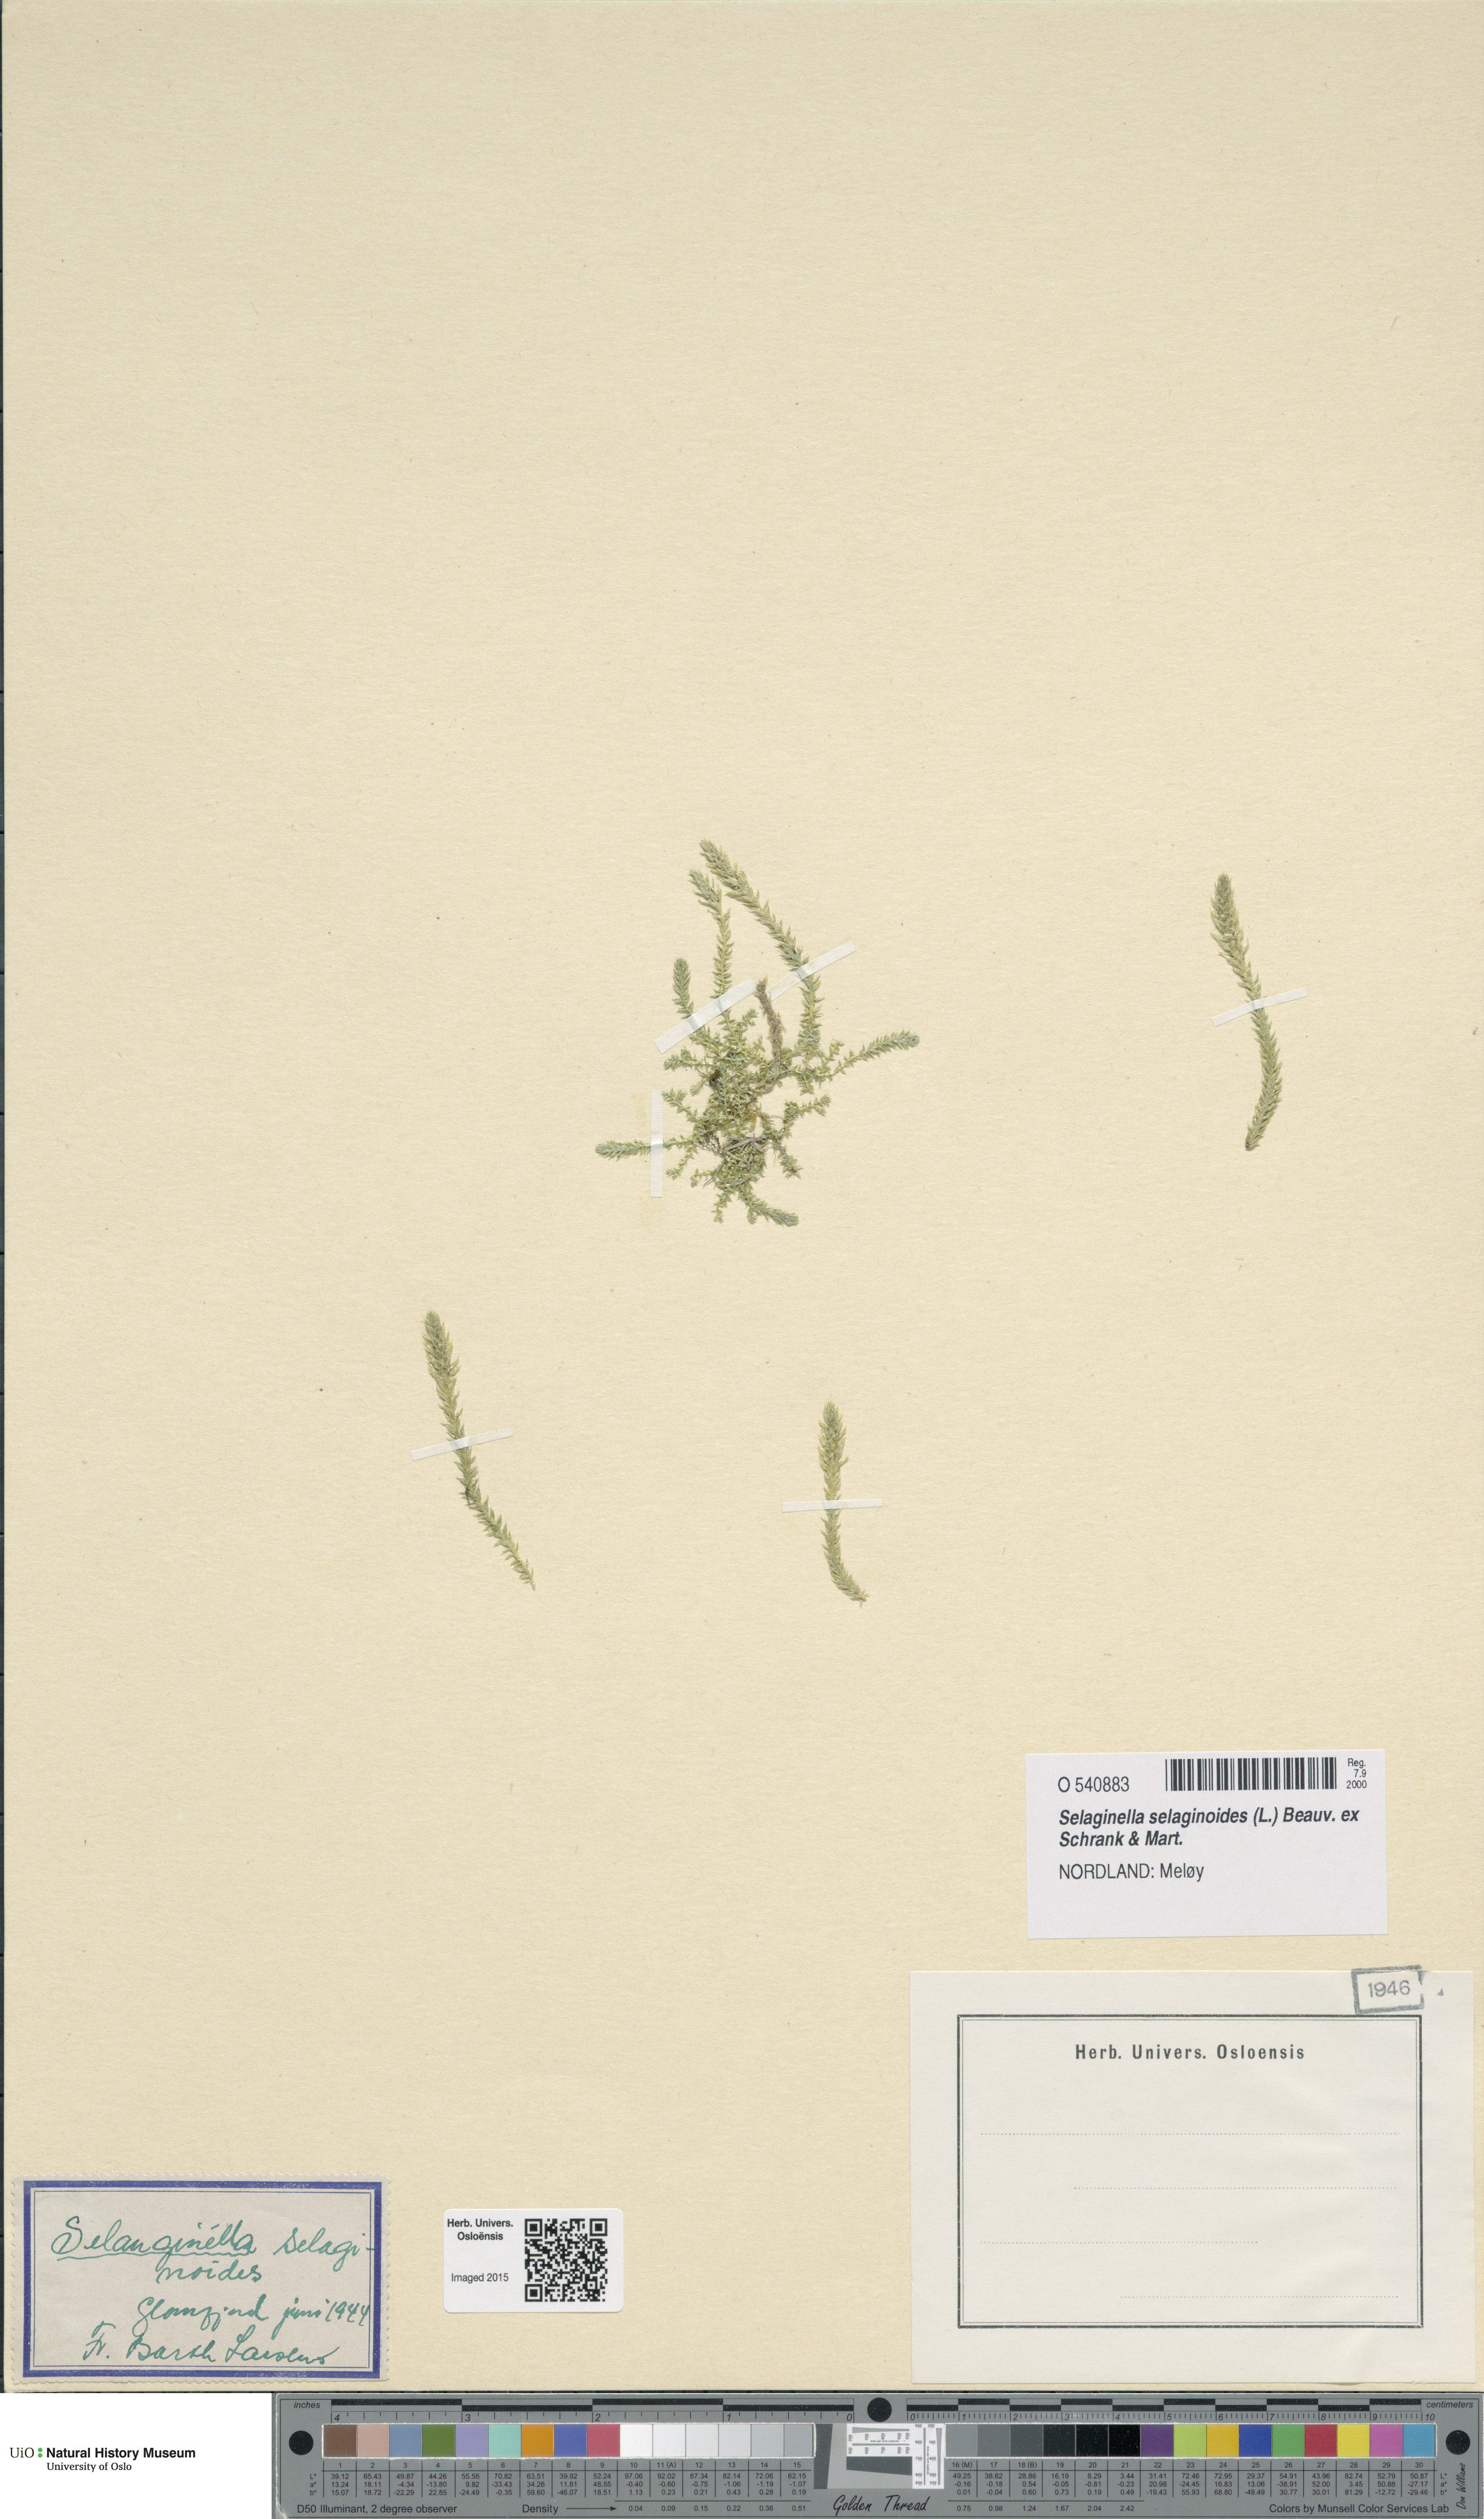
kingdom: Plantae
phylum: Tracheophyta
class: Lycopodiopsida
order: Selaginellales
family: Selaginellaceae
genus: Selaginella
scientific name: Selaginella selaginoides
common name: Prickly mountain-moss
